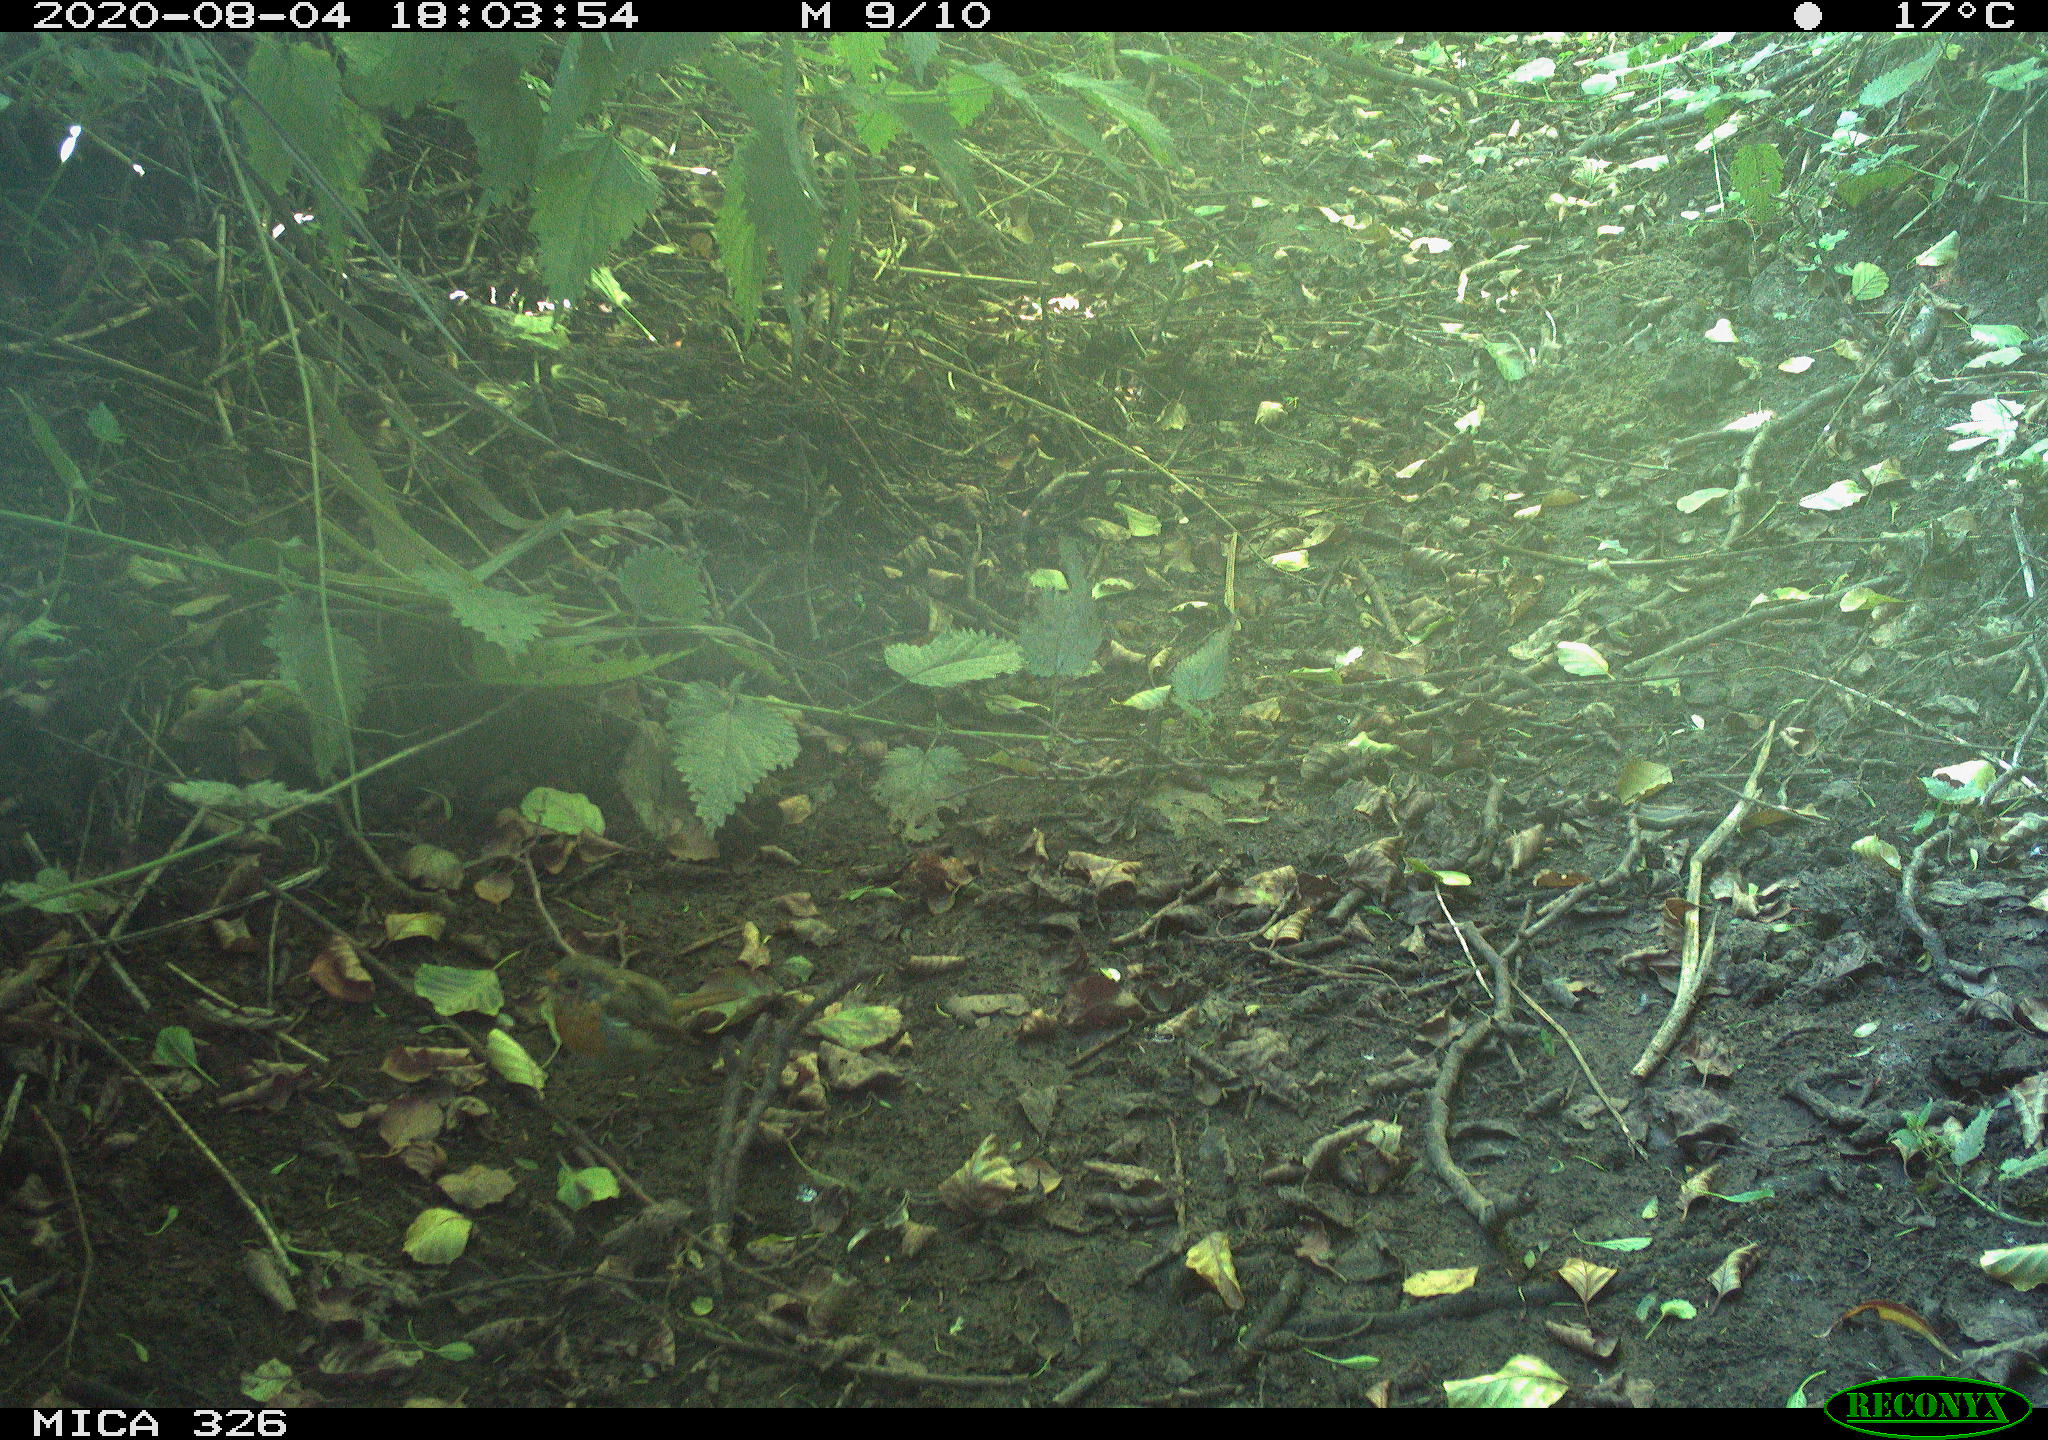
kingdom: Animalia
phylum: Chordata
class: Aves
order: Passeriformes
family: Muscicapidae
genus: Erithacus
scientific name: Erithacus rubecula
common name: European robin
